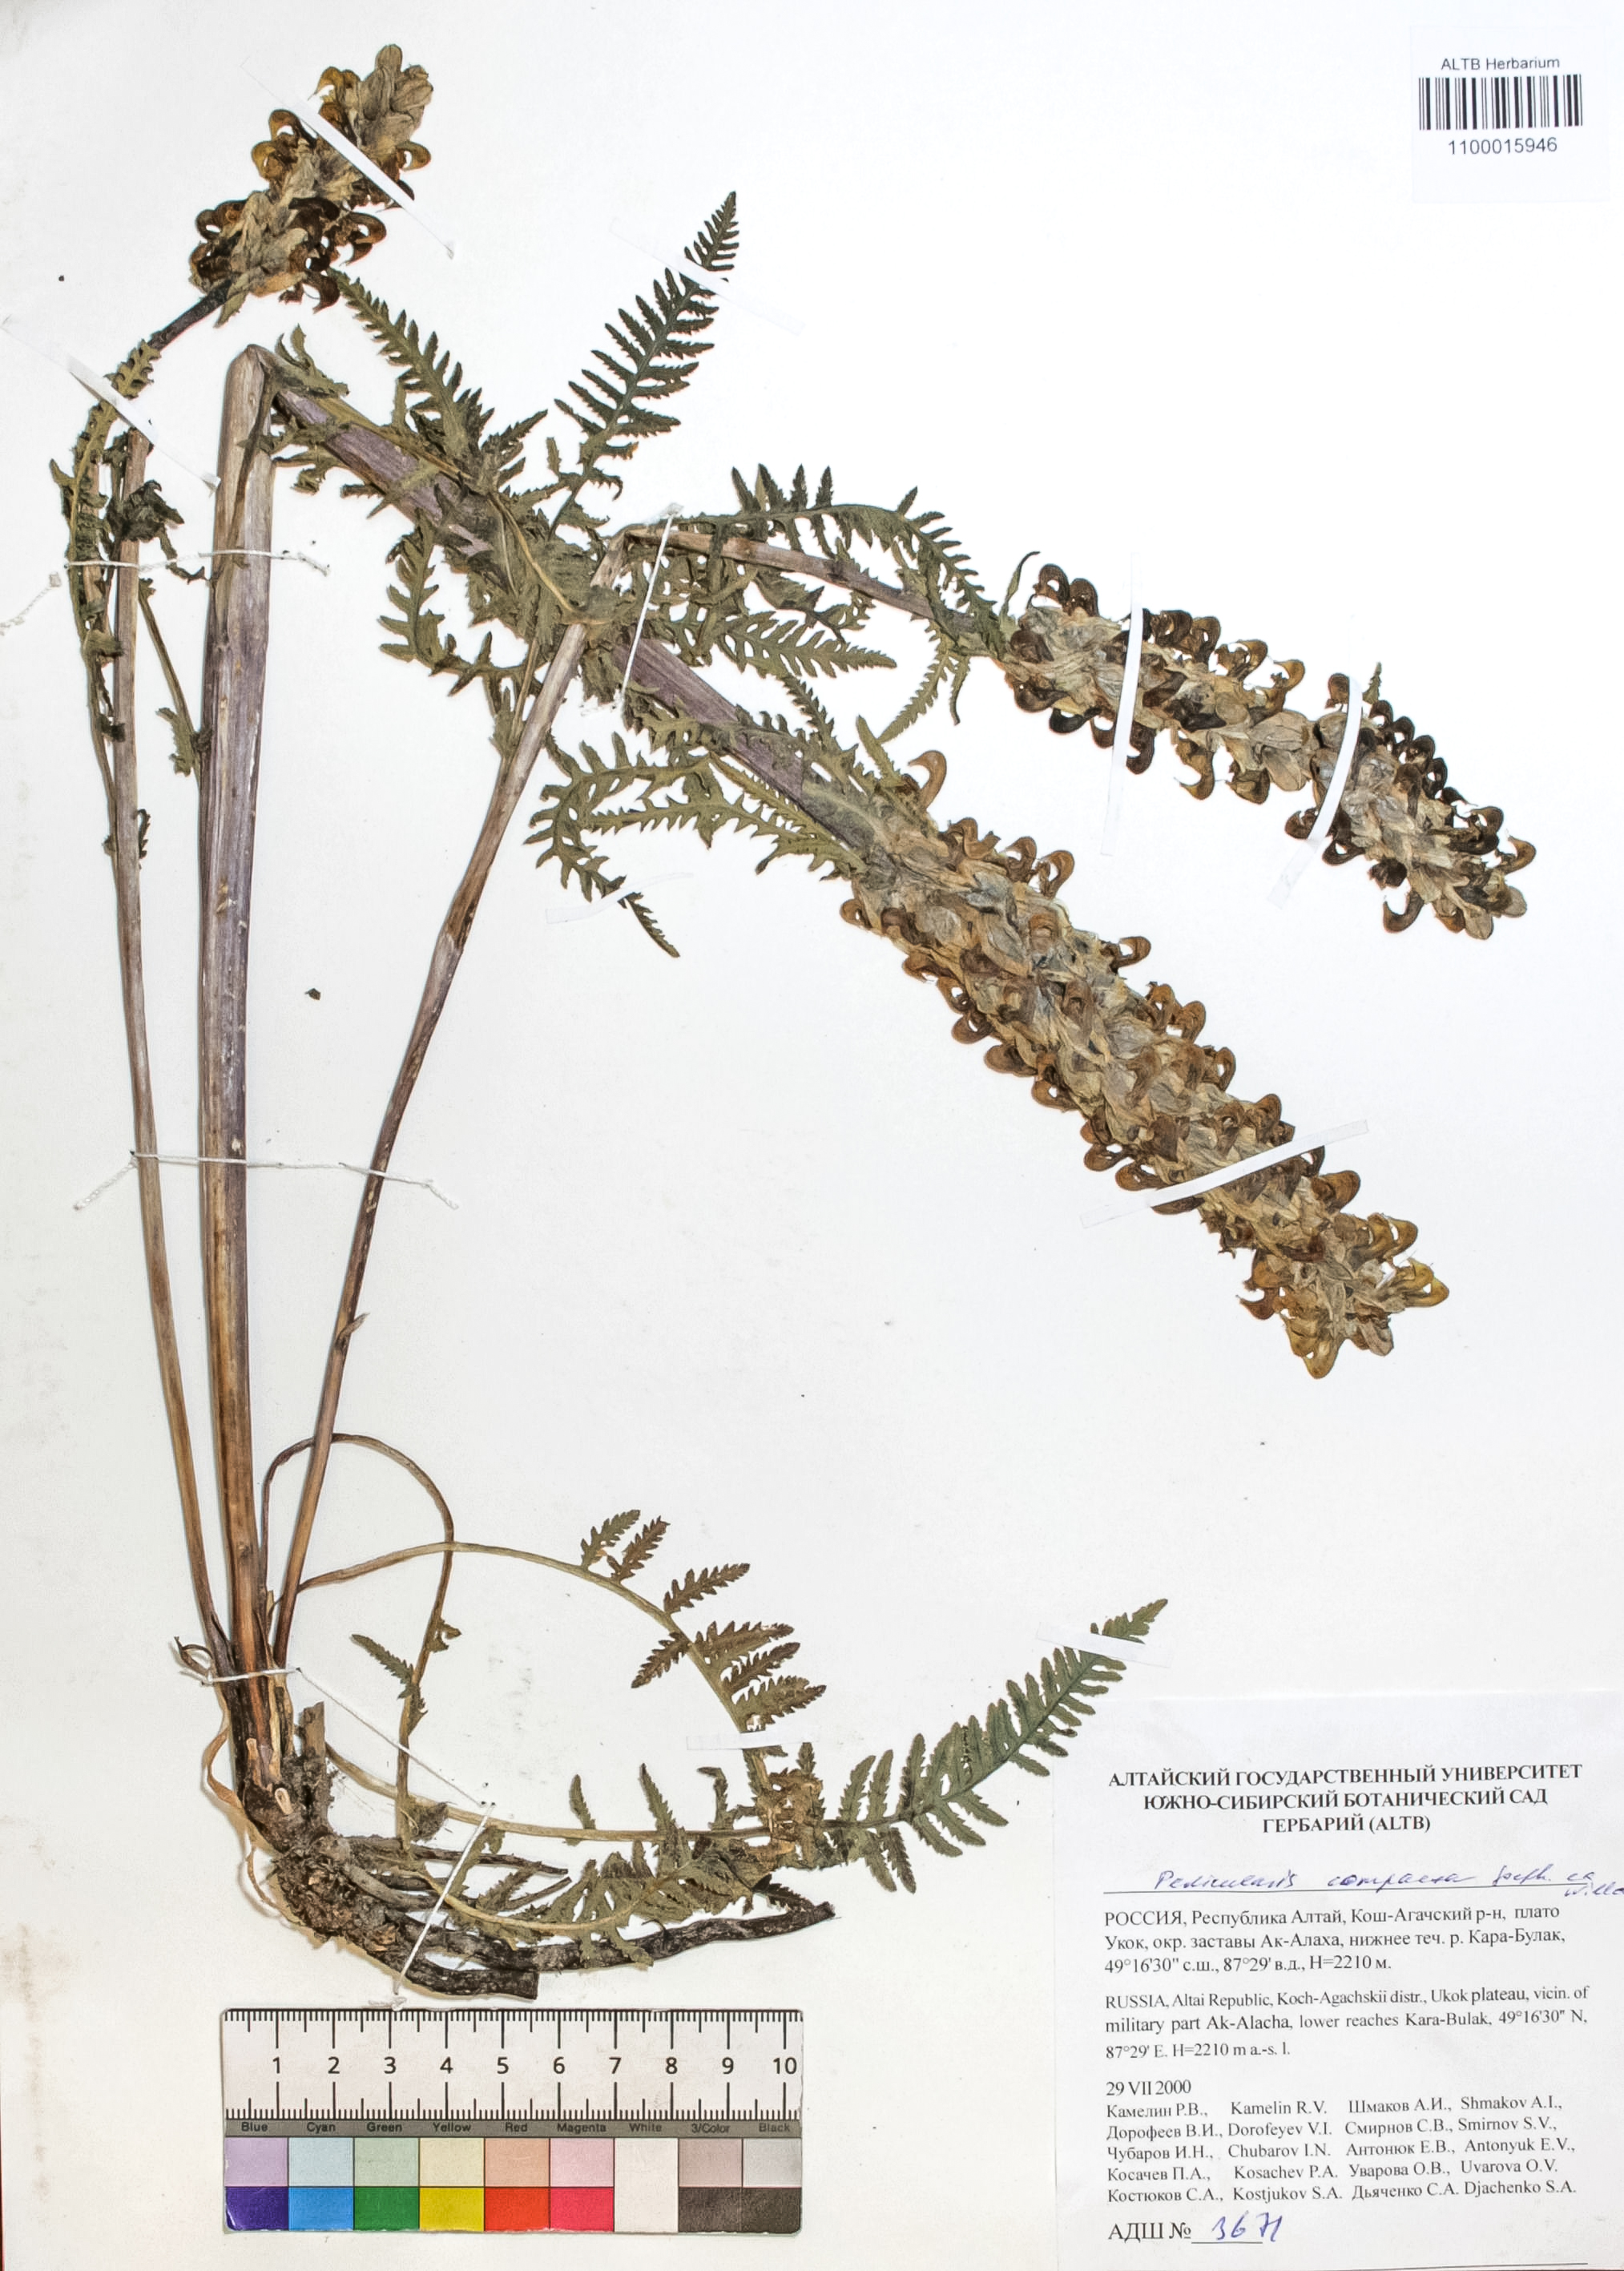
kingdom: Plantae
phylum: Tracheophyta
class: Magnoliopsida
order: Lamiales
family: Orobanchaceae
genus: Pedicularis
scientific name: Pedicularis compacta
